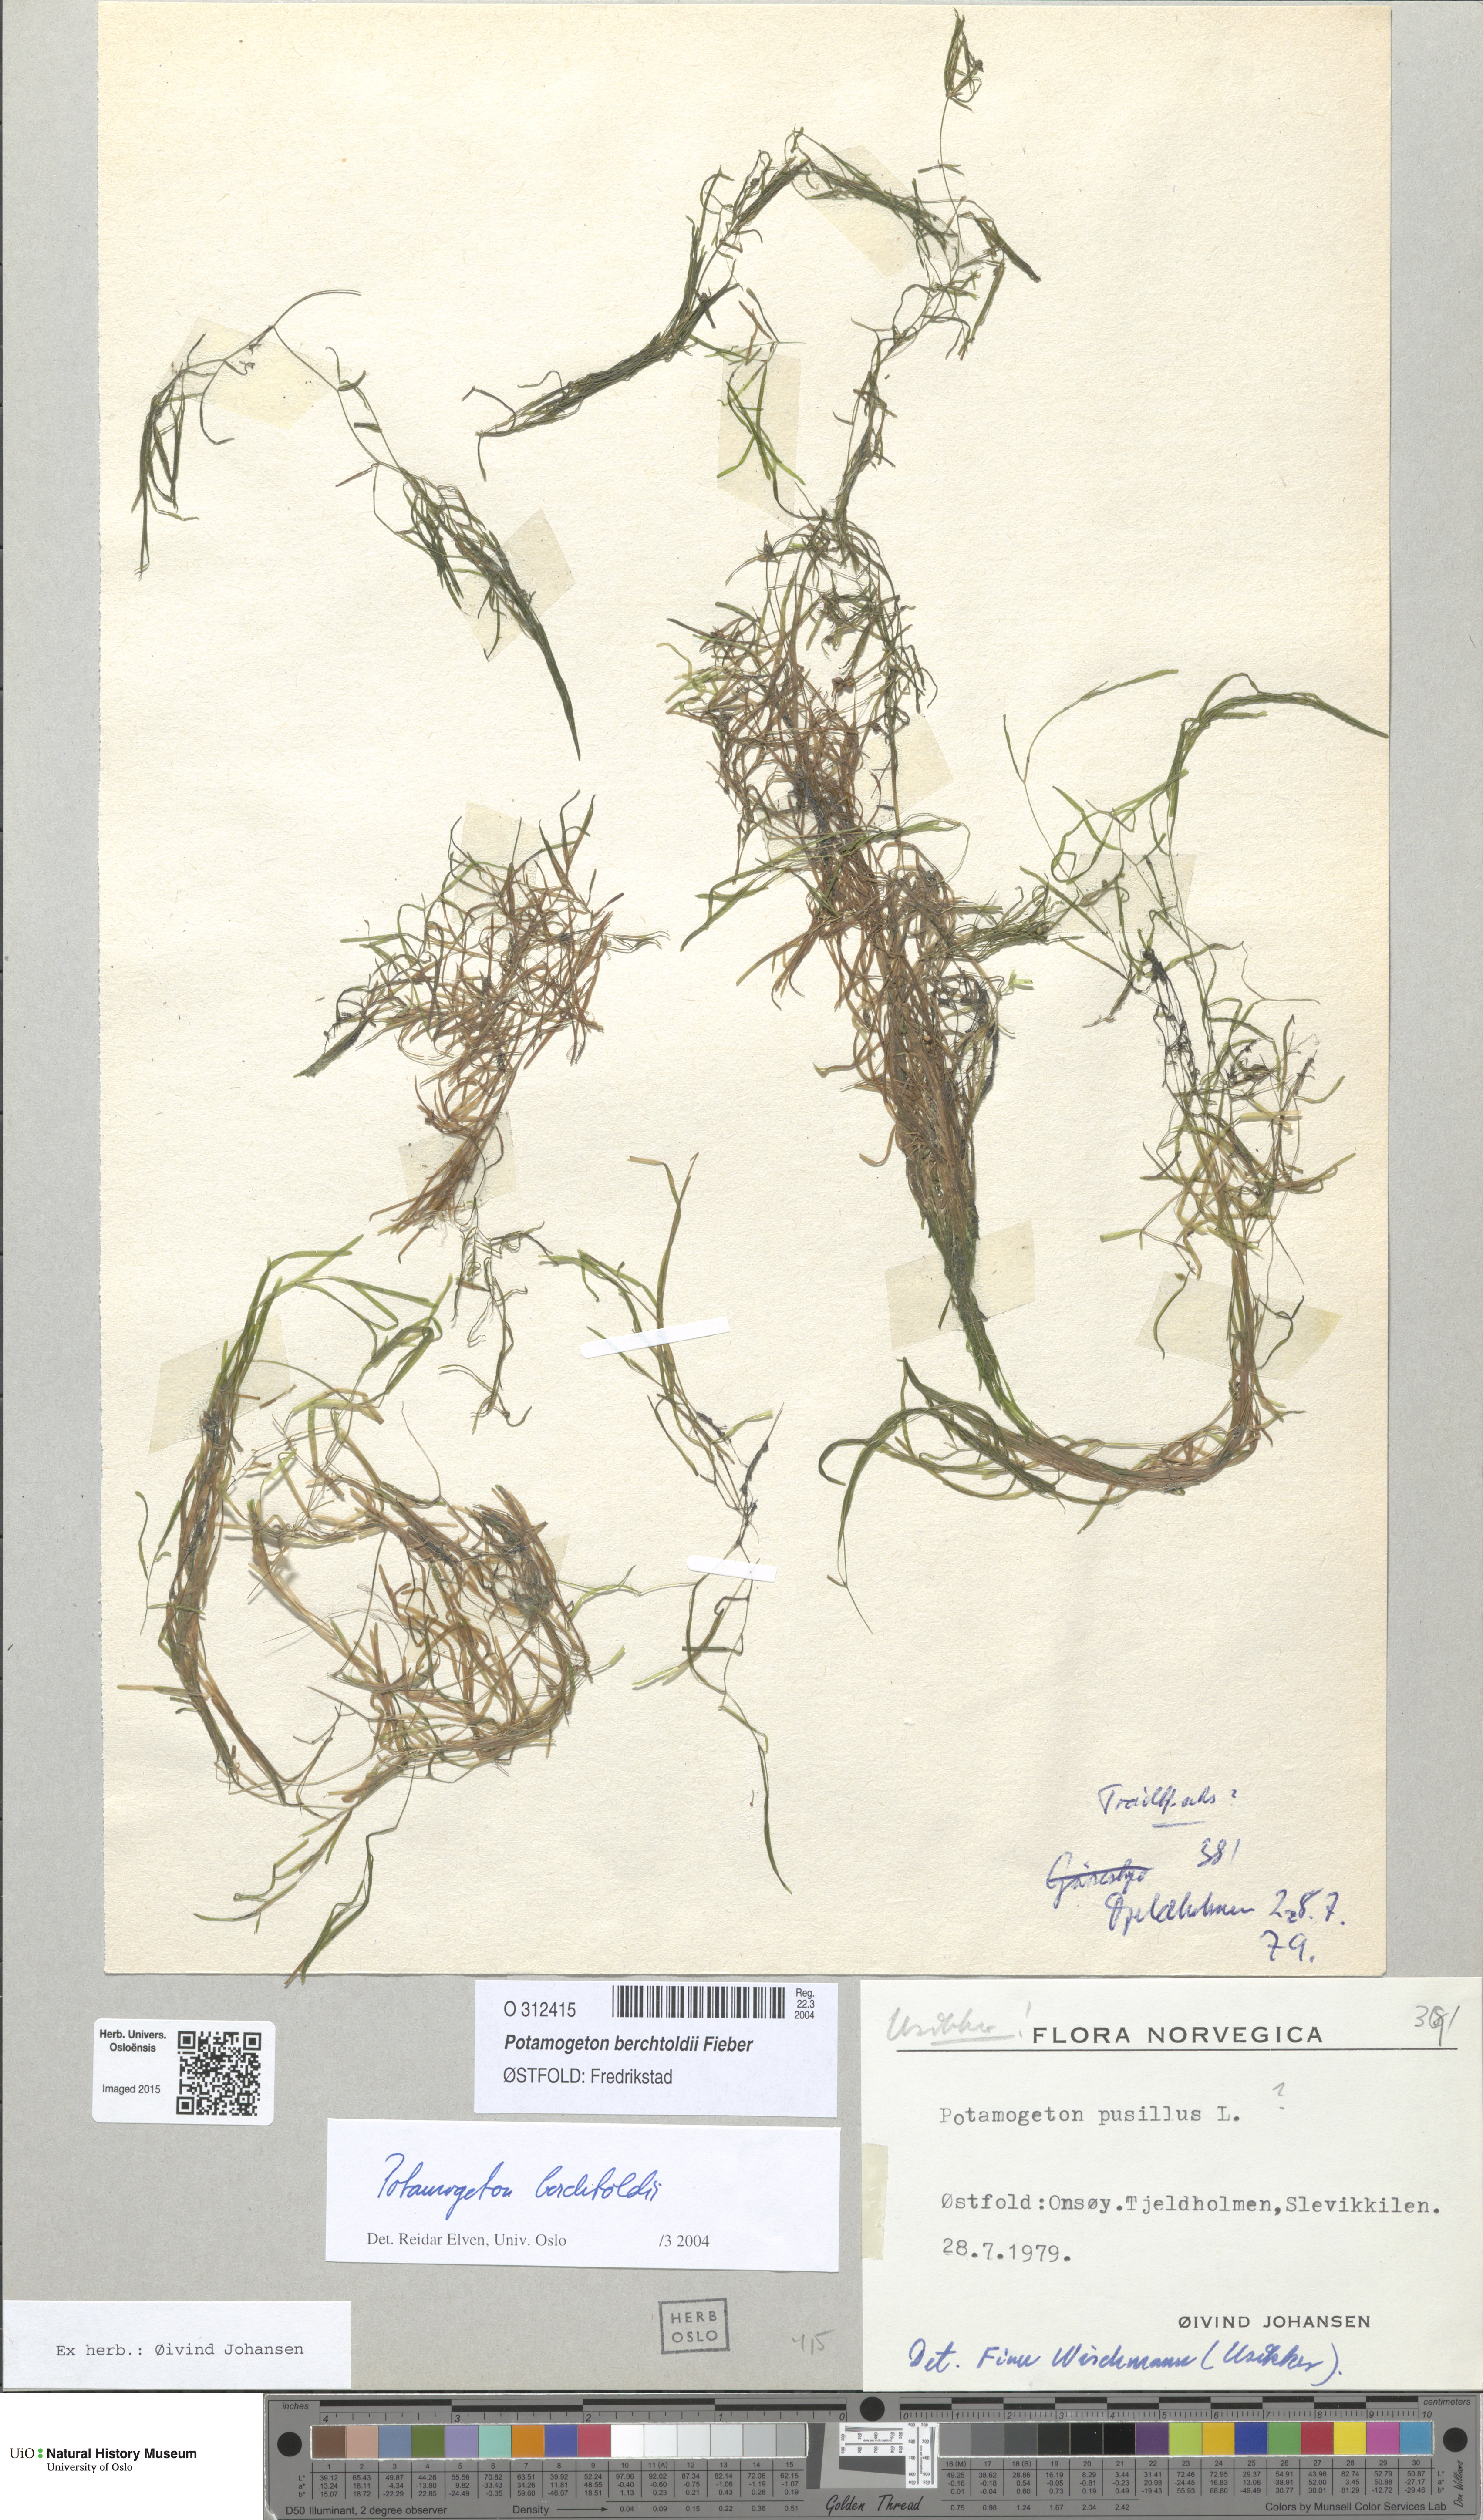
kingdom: Plantae
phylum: Tracheophyta
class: Liliopsida
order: Alismatales
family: Potamogetonaceae
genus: Potamogeton
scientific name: Potamogeton berchtoldii
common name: Small pondweed
